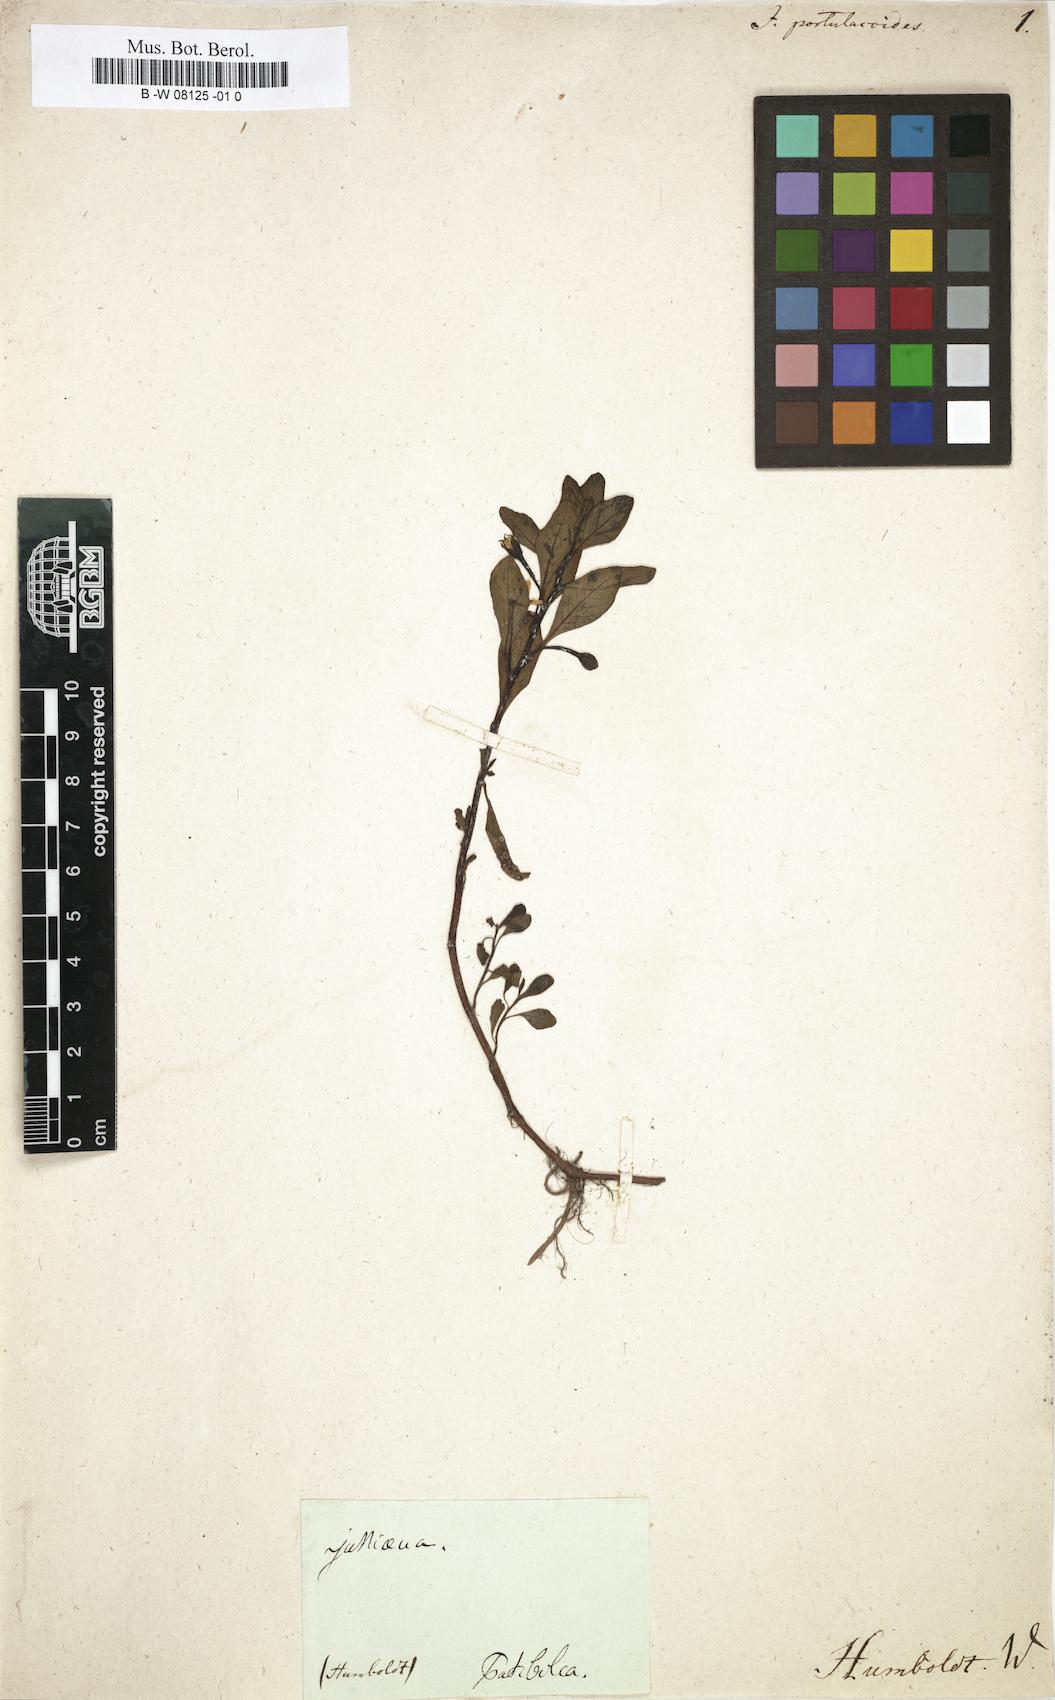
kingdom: Plantae
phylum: Tracheophyta
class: Magnoliopsida
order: Myrtales
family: Onagraceae
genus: Ludwigia
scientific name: Ludwigia
